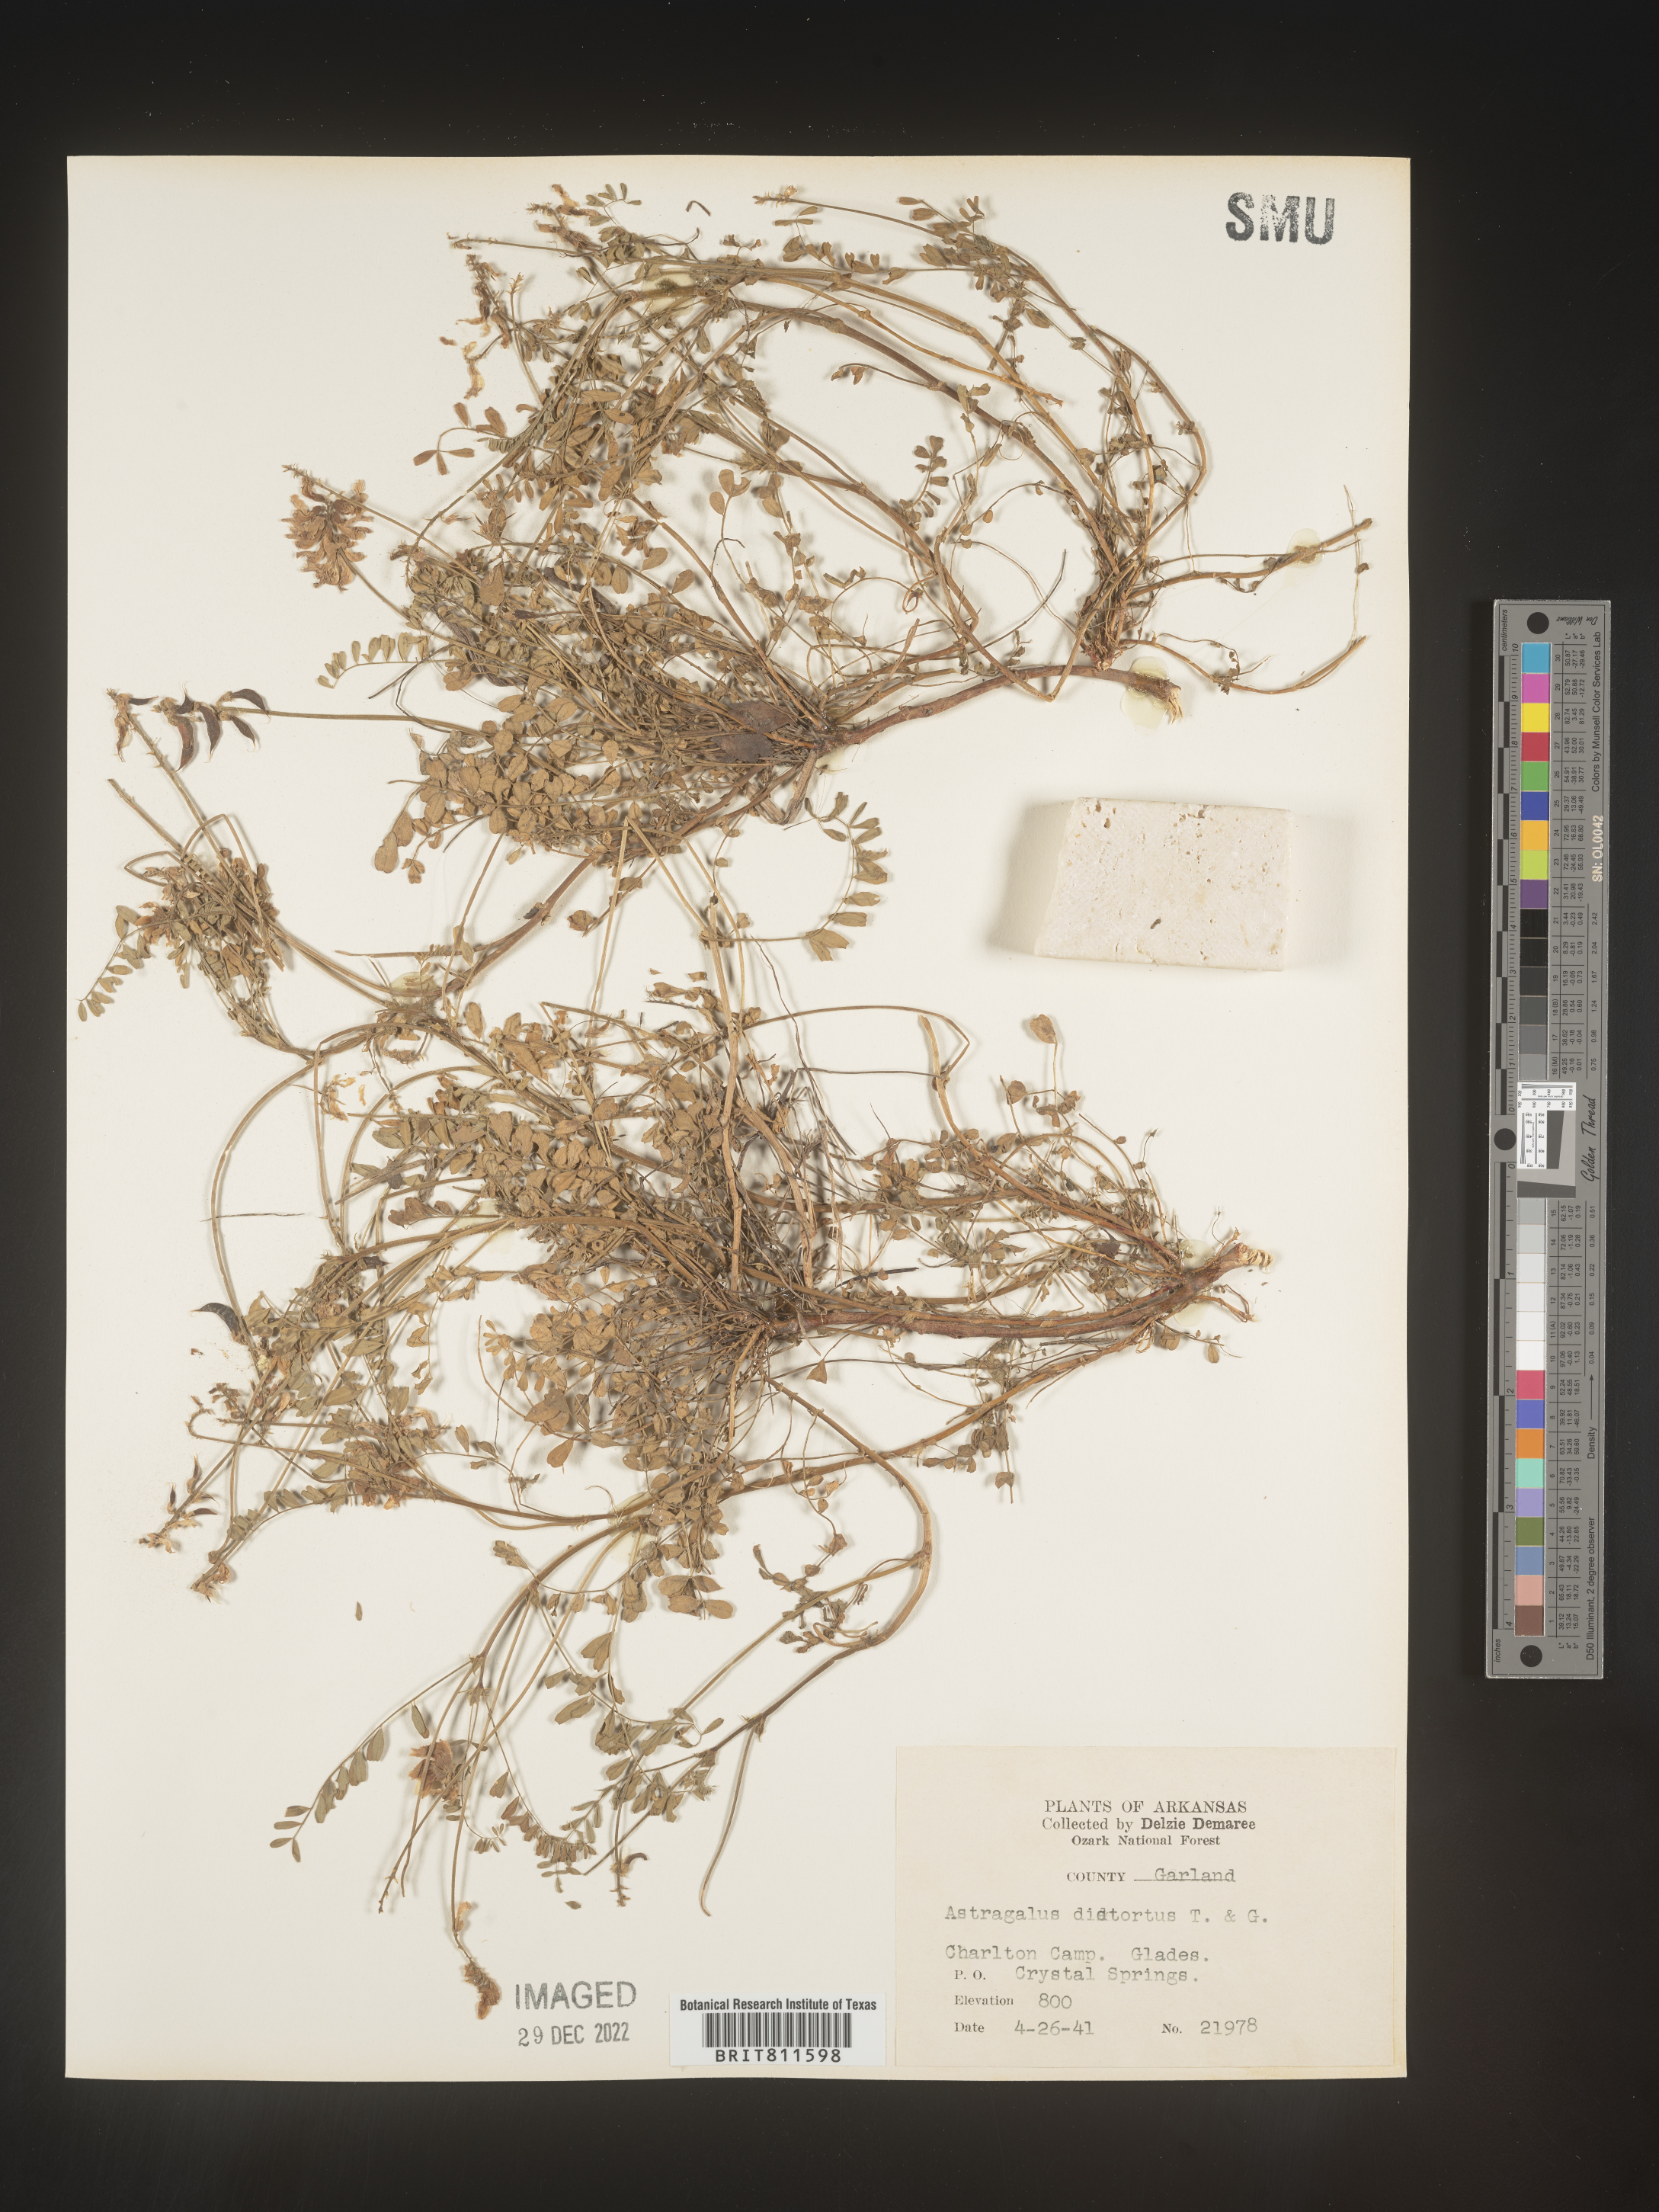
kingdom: Plantae
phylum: Tracheophyta
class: Magnoliopsida
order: Fabales
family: Fabaceae
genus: Astragalus
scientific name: Astragalus distortus
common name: Ozark milk-vetch
